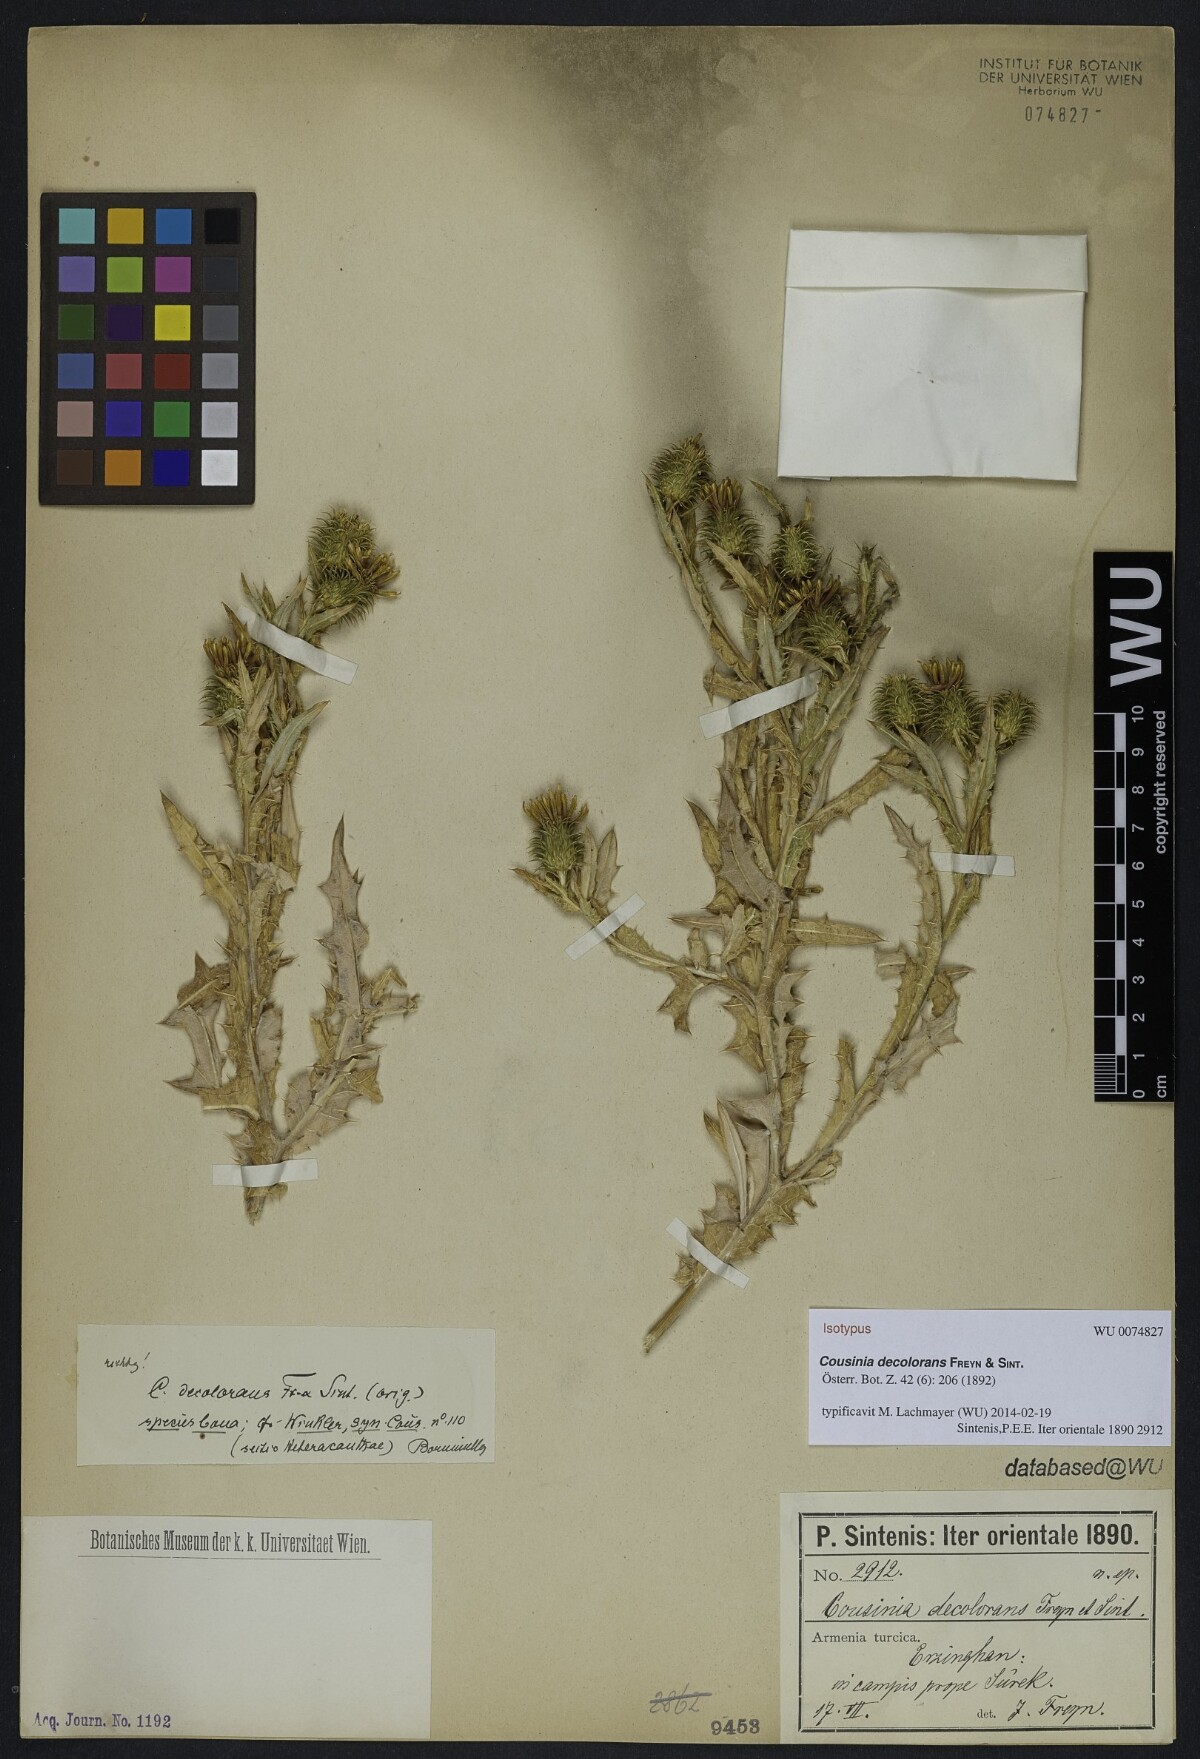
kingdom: Plantae
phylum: Tracheophyta
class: Magnoliopsida
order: Asterales
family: Asteraceae
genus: Cousinia
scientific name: Cousinia decolorans
